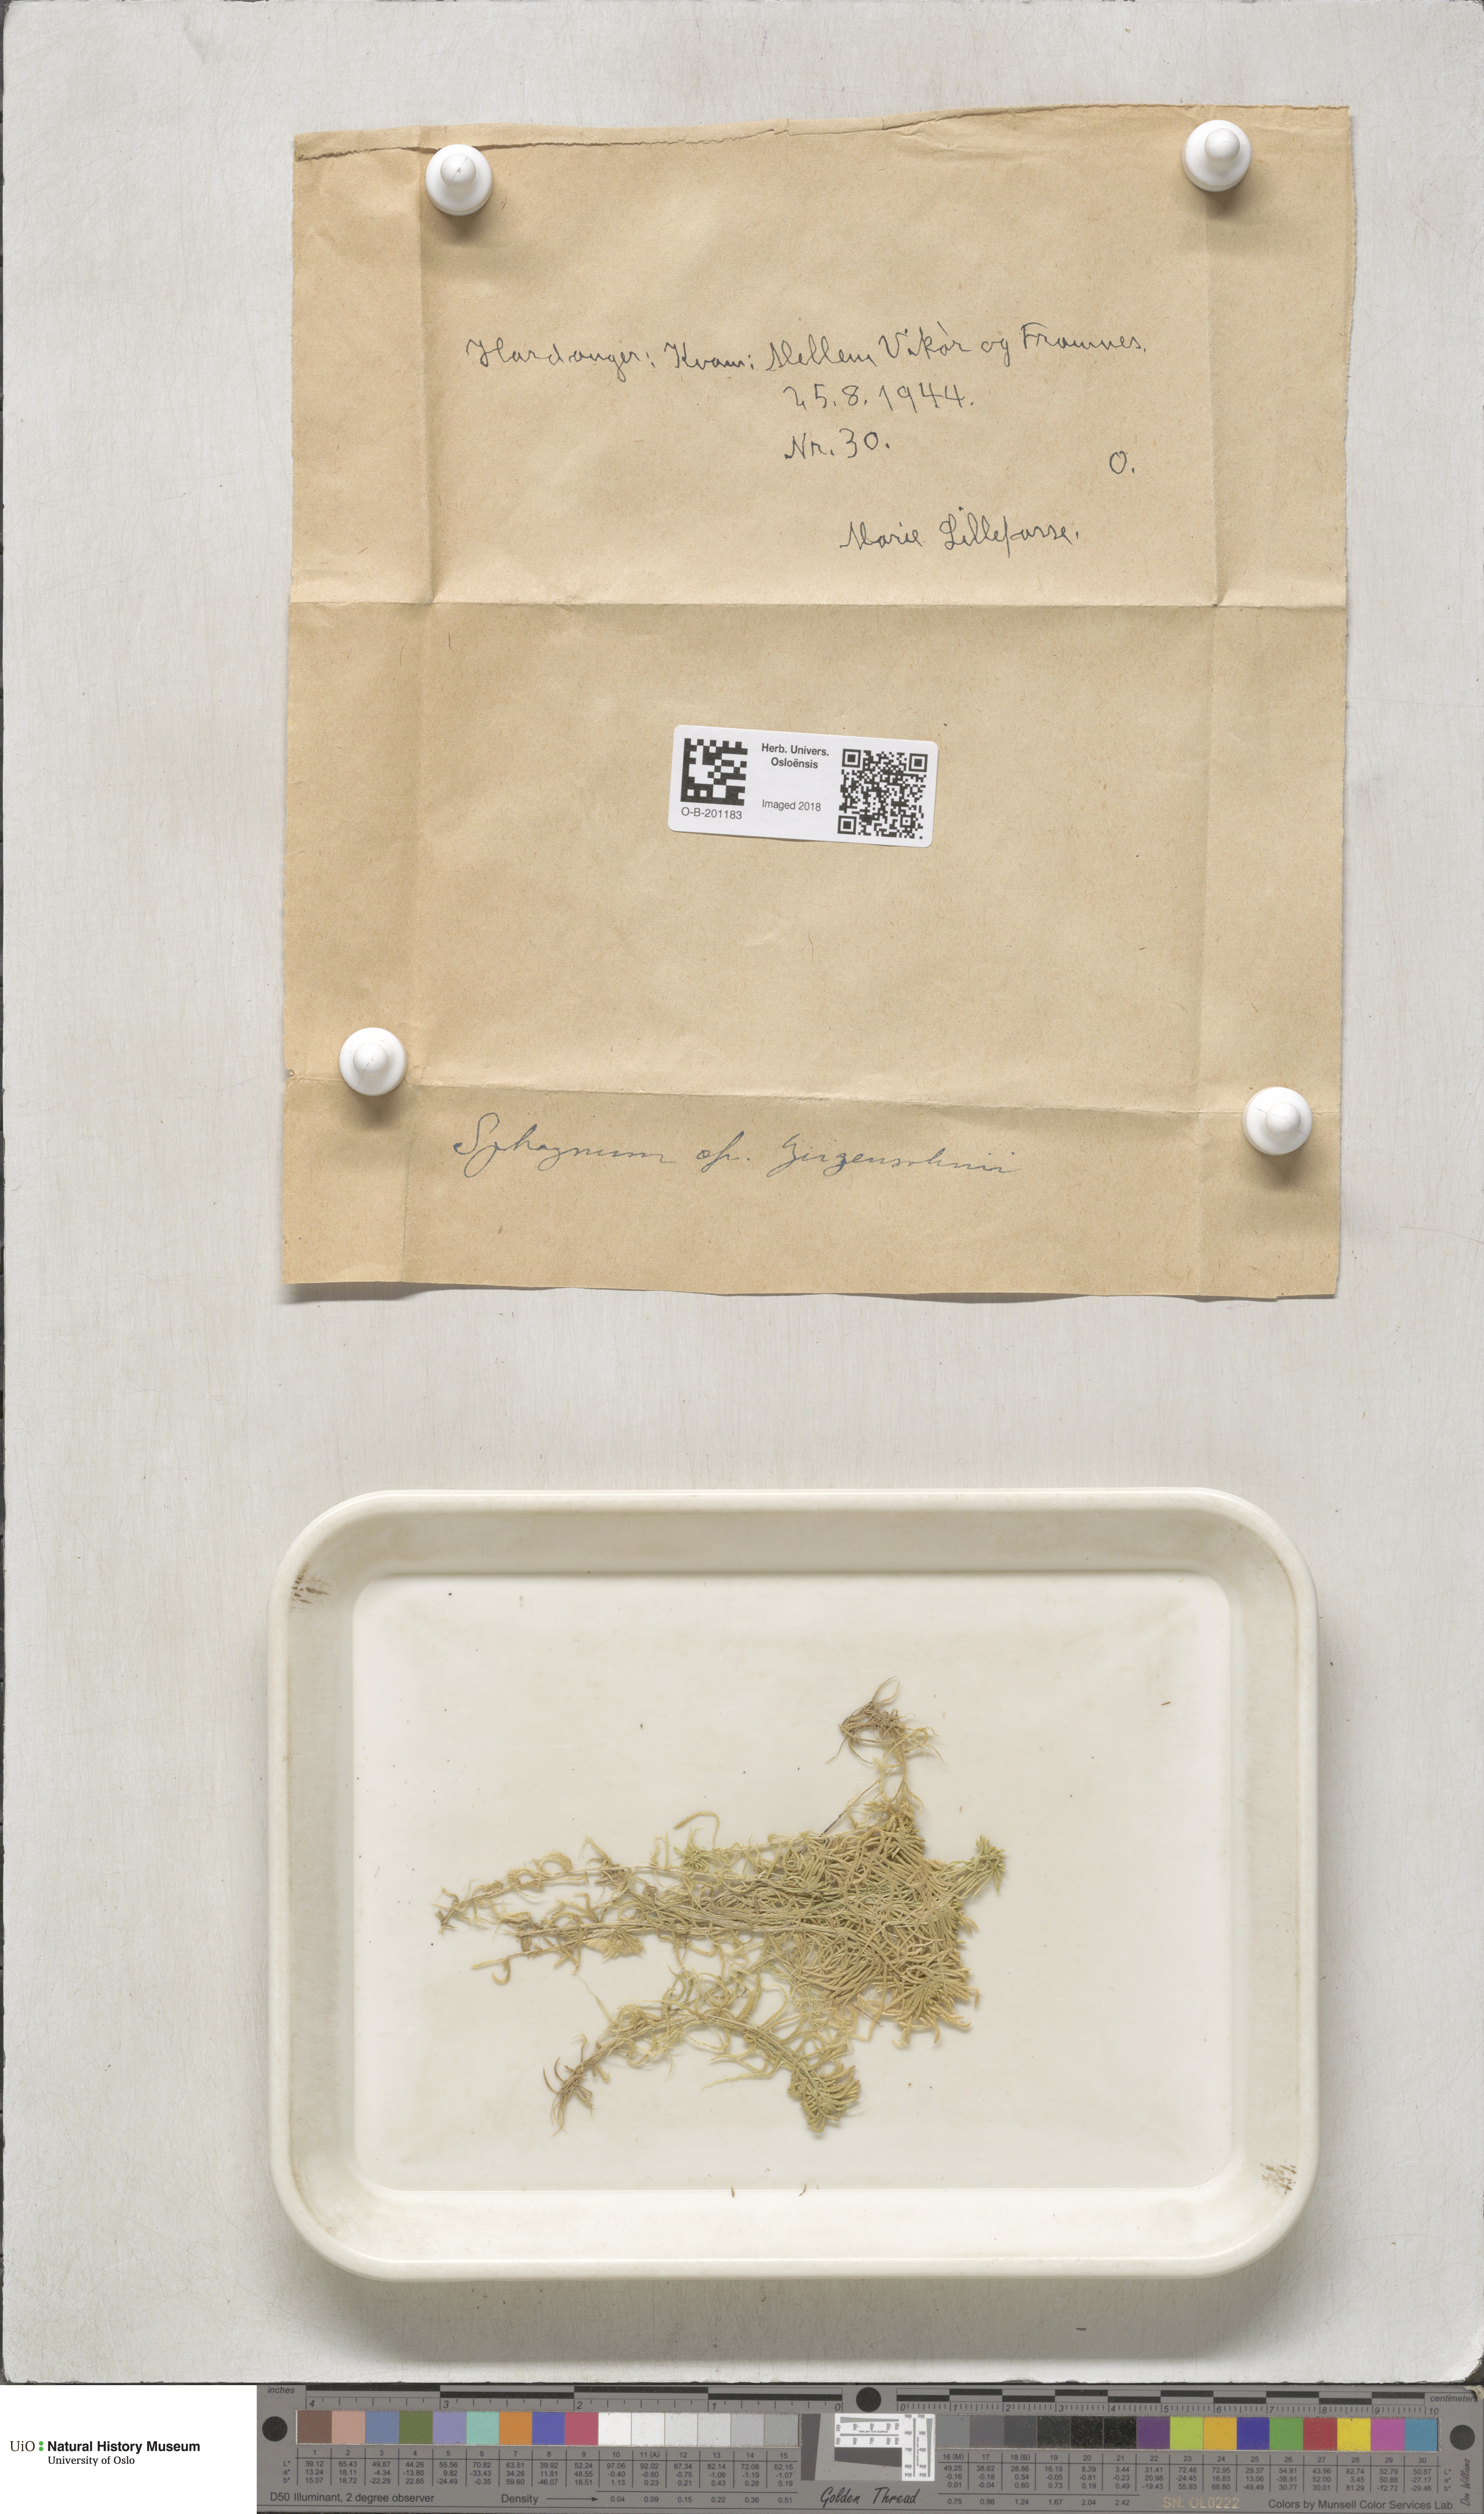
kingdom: Plantae
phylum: Bryophyta
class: Sphagnopsida
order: Sphagnales
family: Sphagnaceae
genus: Sphagnum
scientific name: Sphagnum girgensohnii
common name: Girgensohn's peat moss
